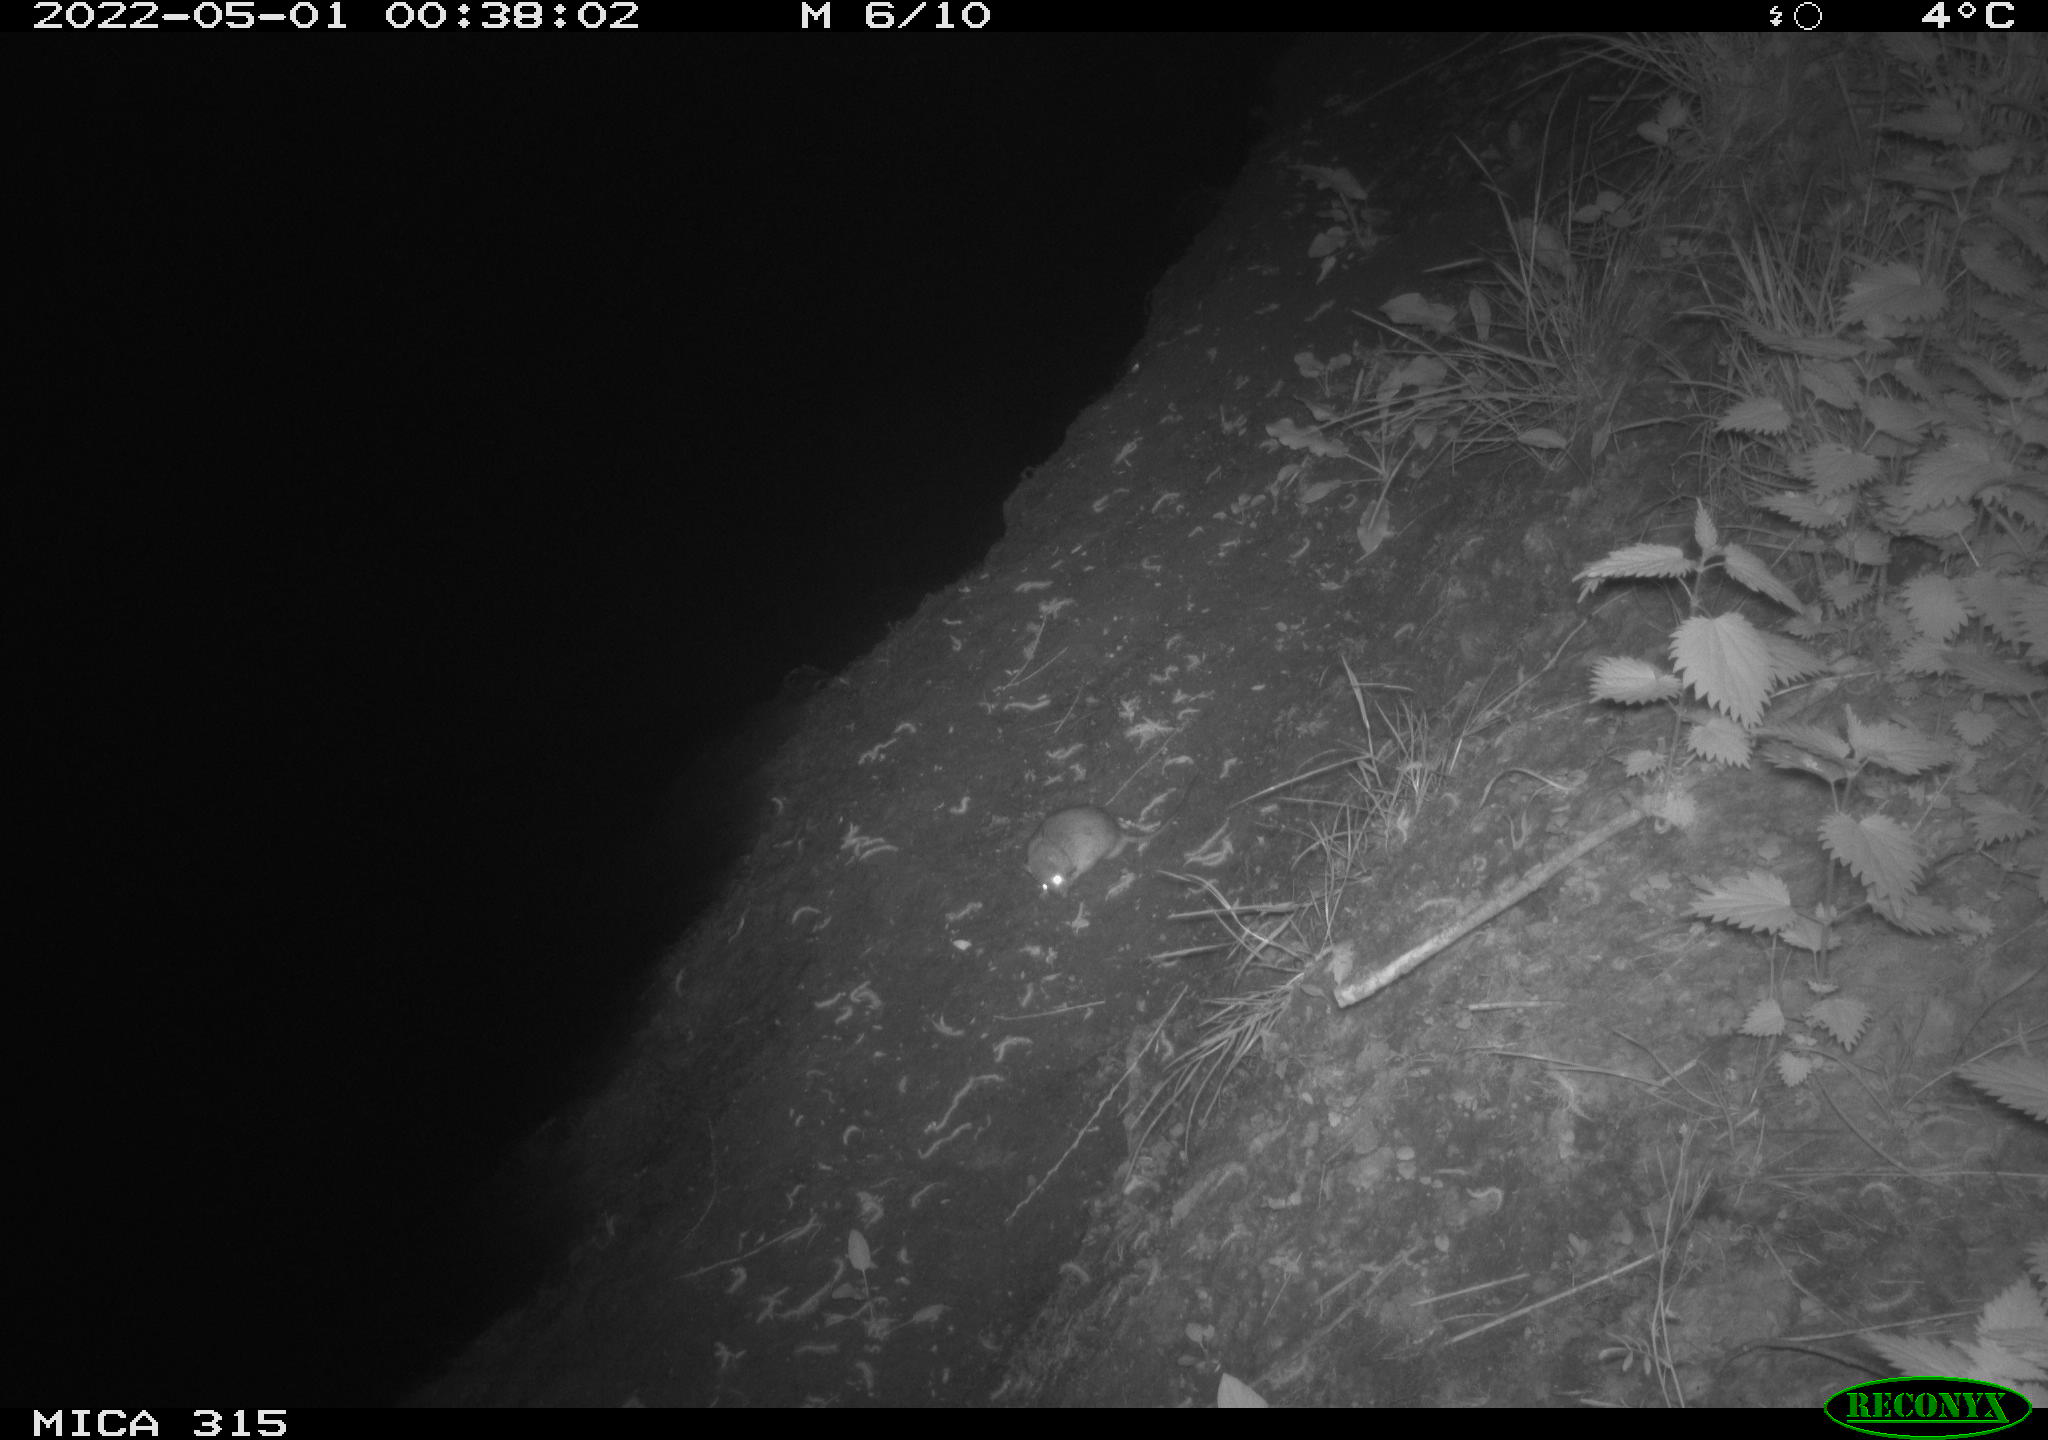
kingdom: Animalia
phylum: Chordata
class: Mammalia
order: Rodentia
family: Muridae
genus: Rattus
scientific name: Rattus norvegicus
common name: Brown rat
